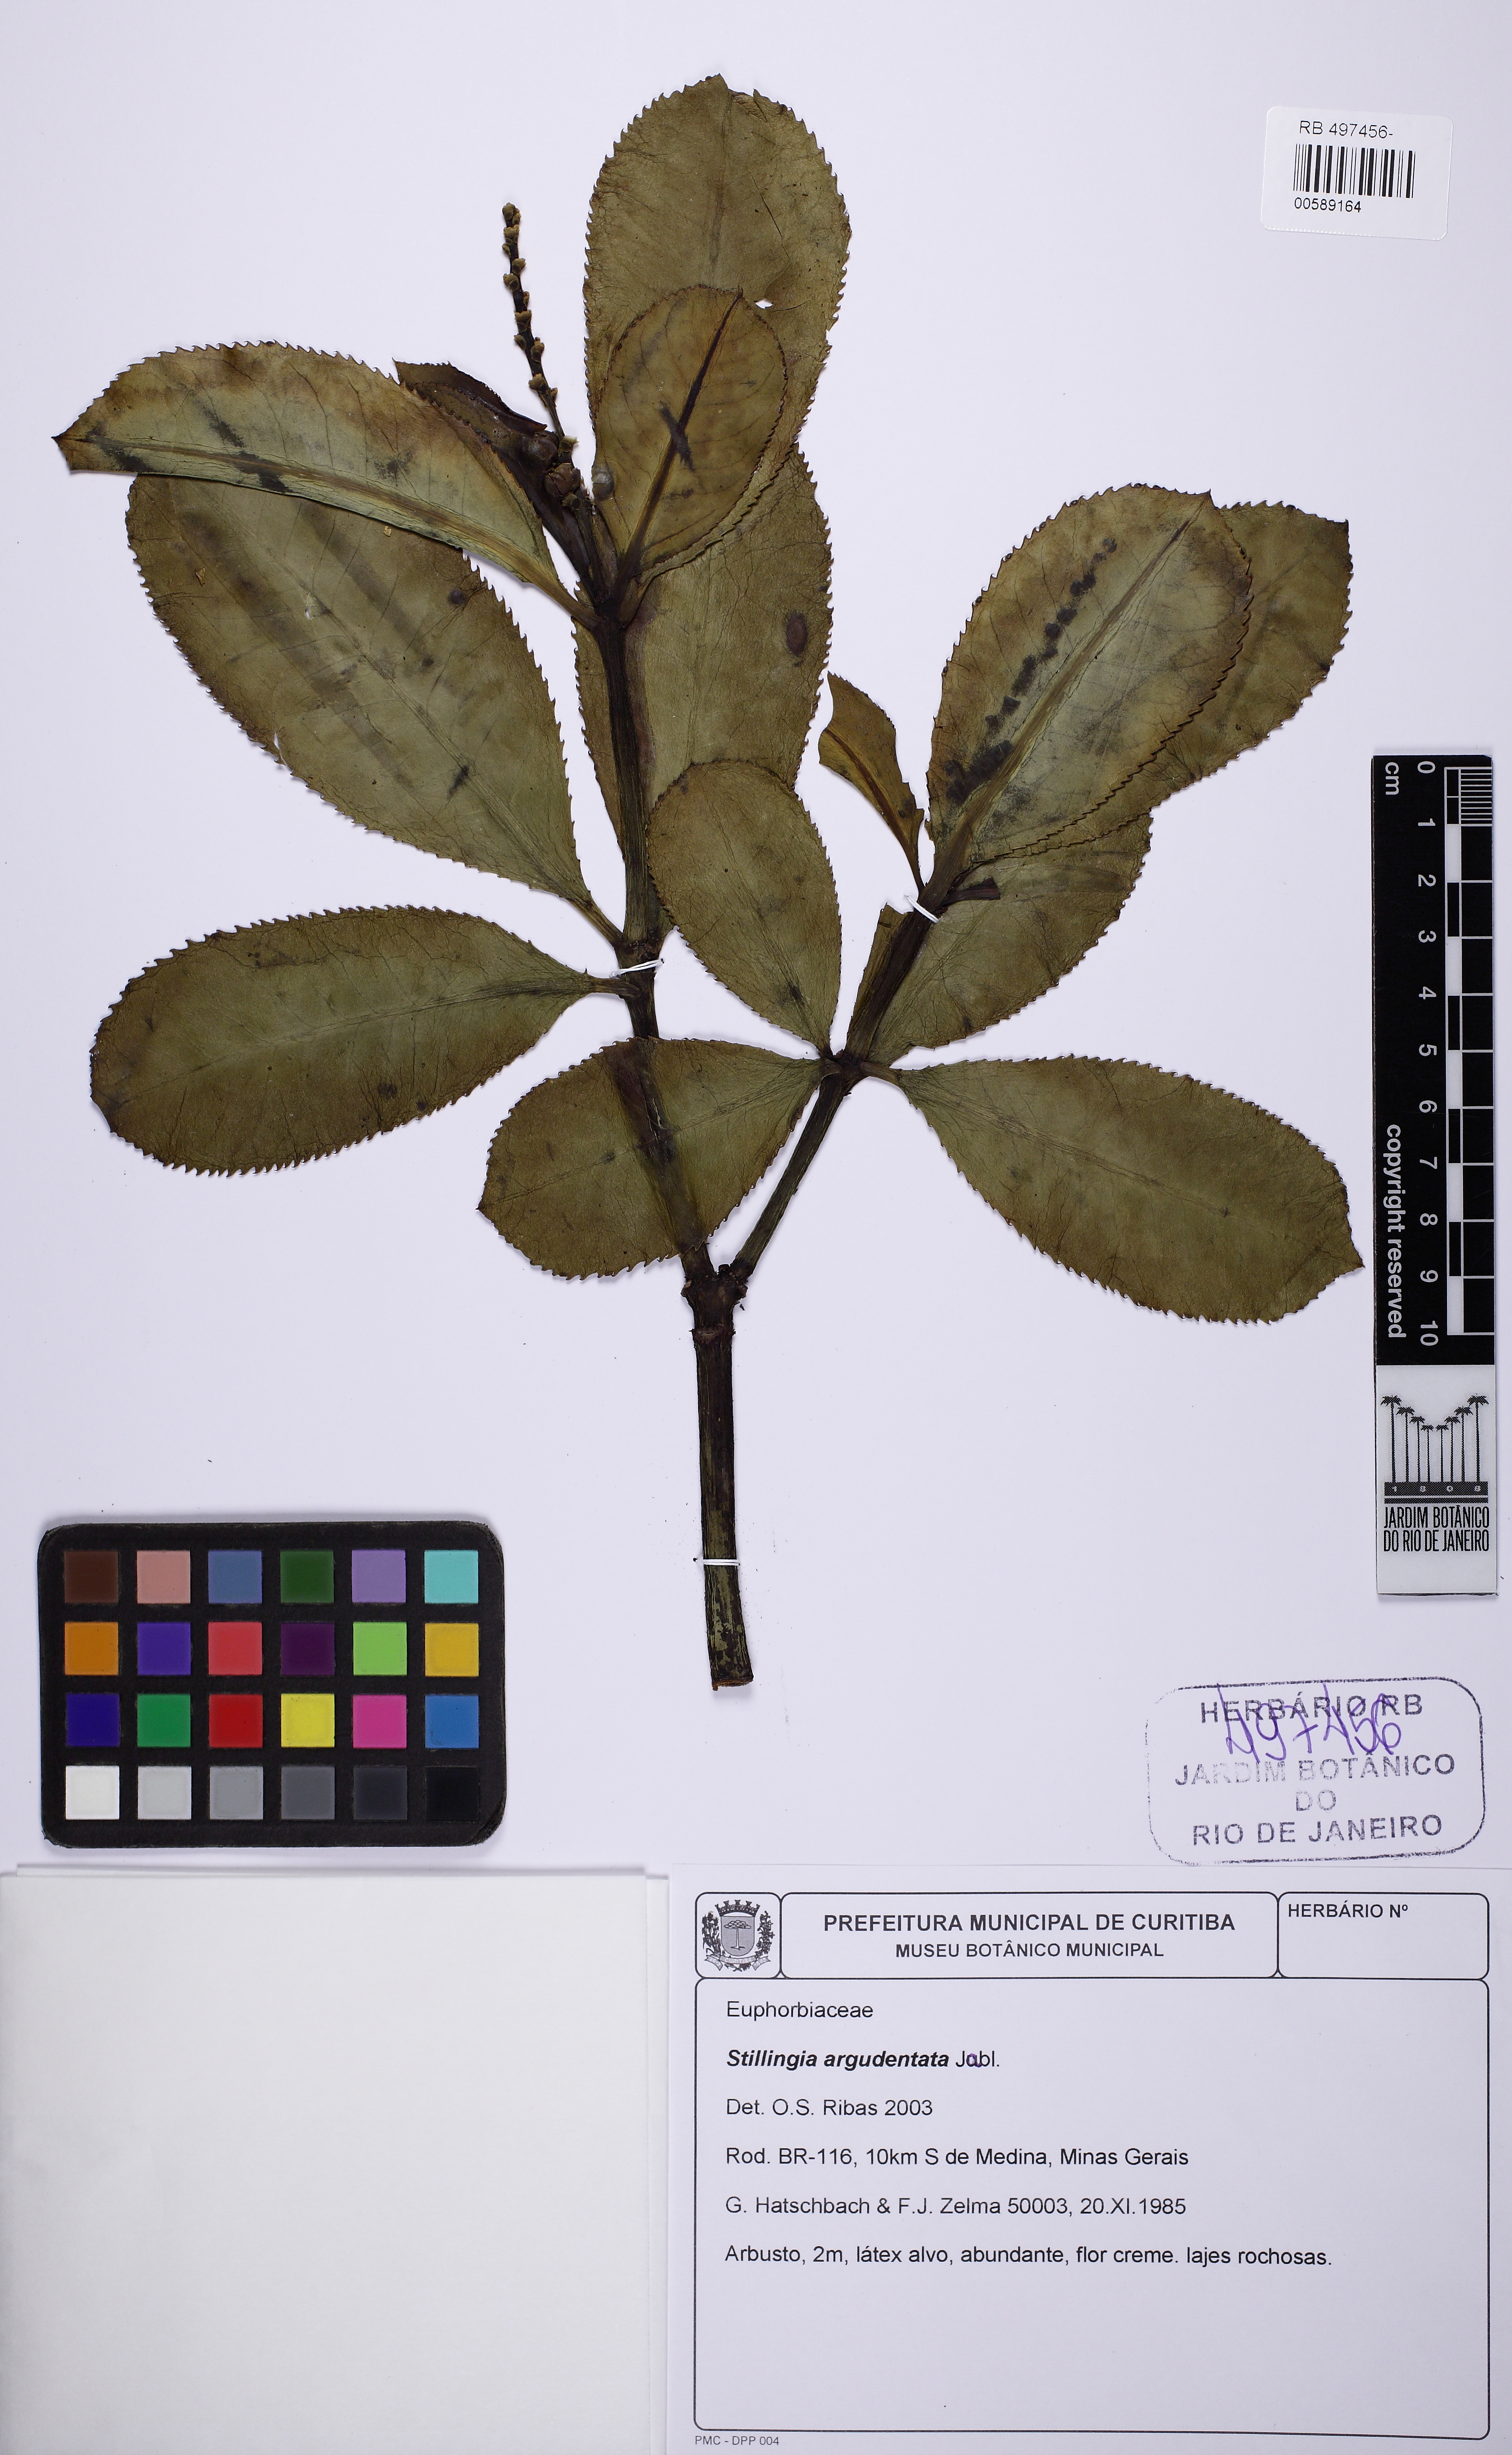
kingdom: Plantae
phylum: Tracheophyta
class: Magnoliopsida
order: Malpighiales
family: Euphorbiaceae
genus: Stillingia
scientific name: Stillingia argutedentata
